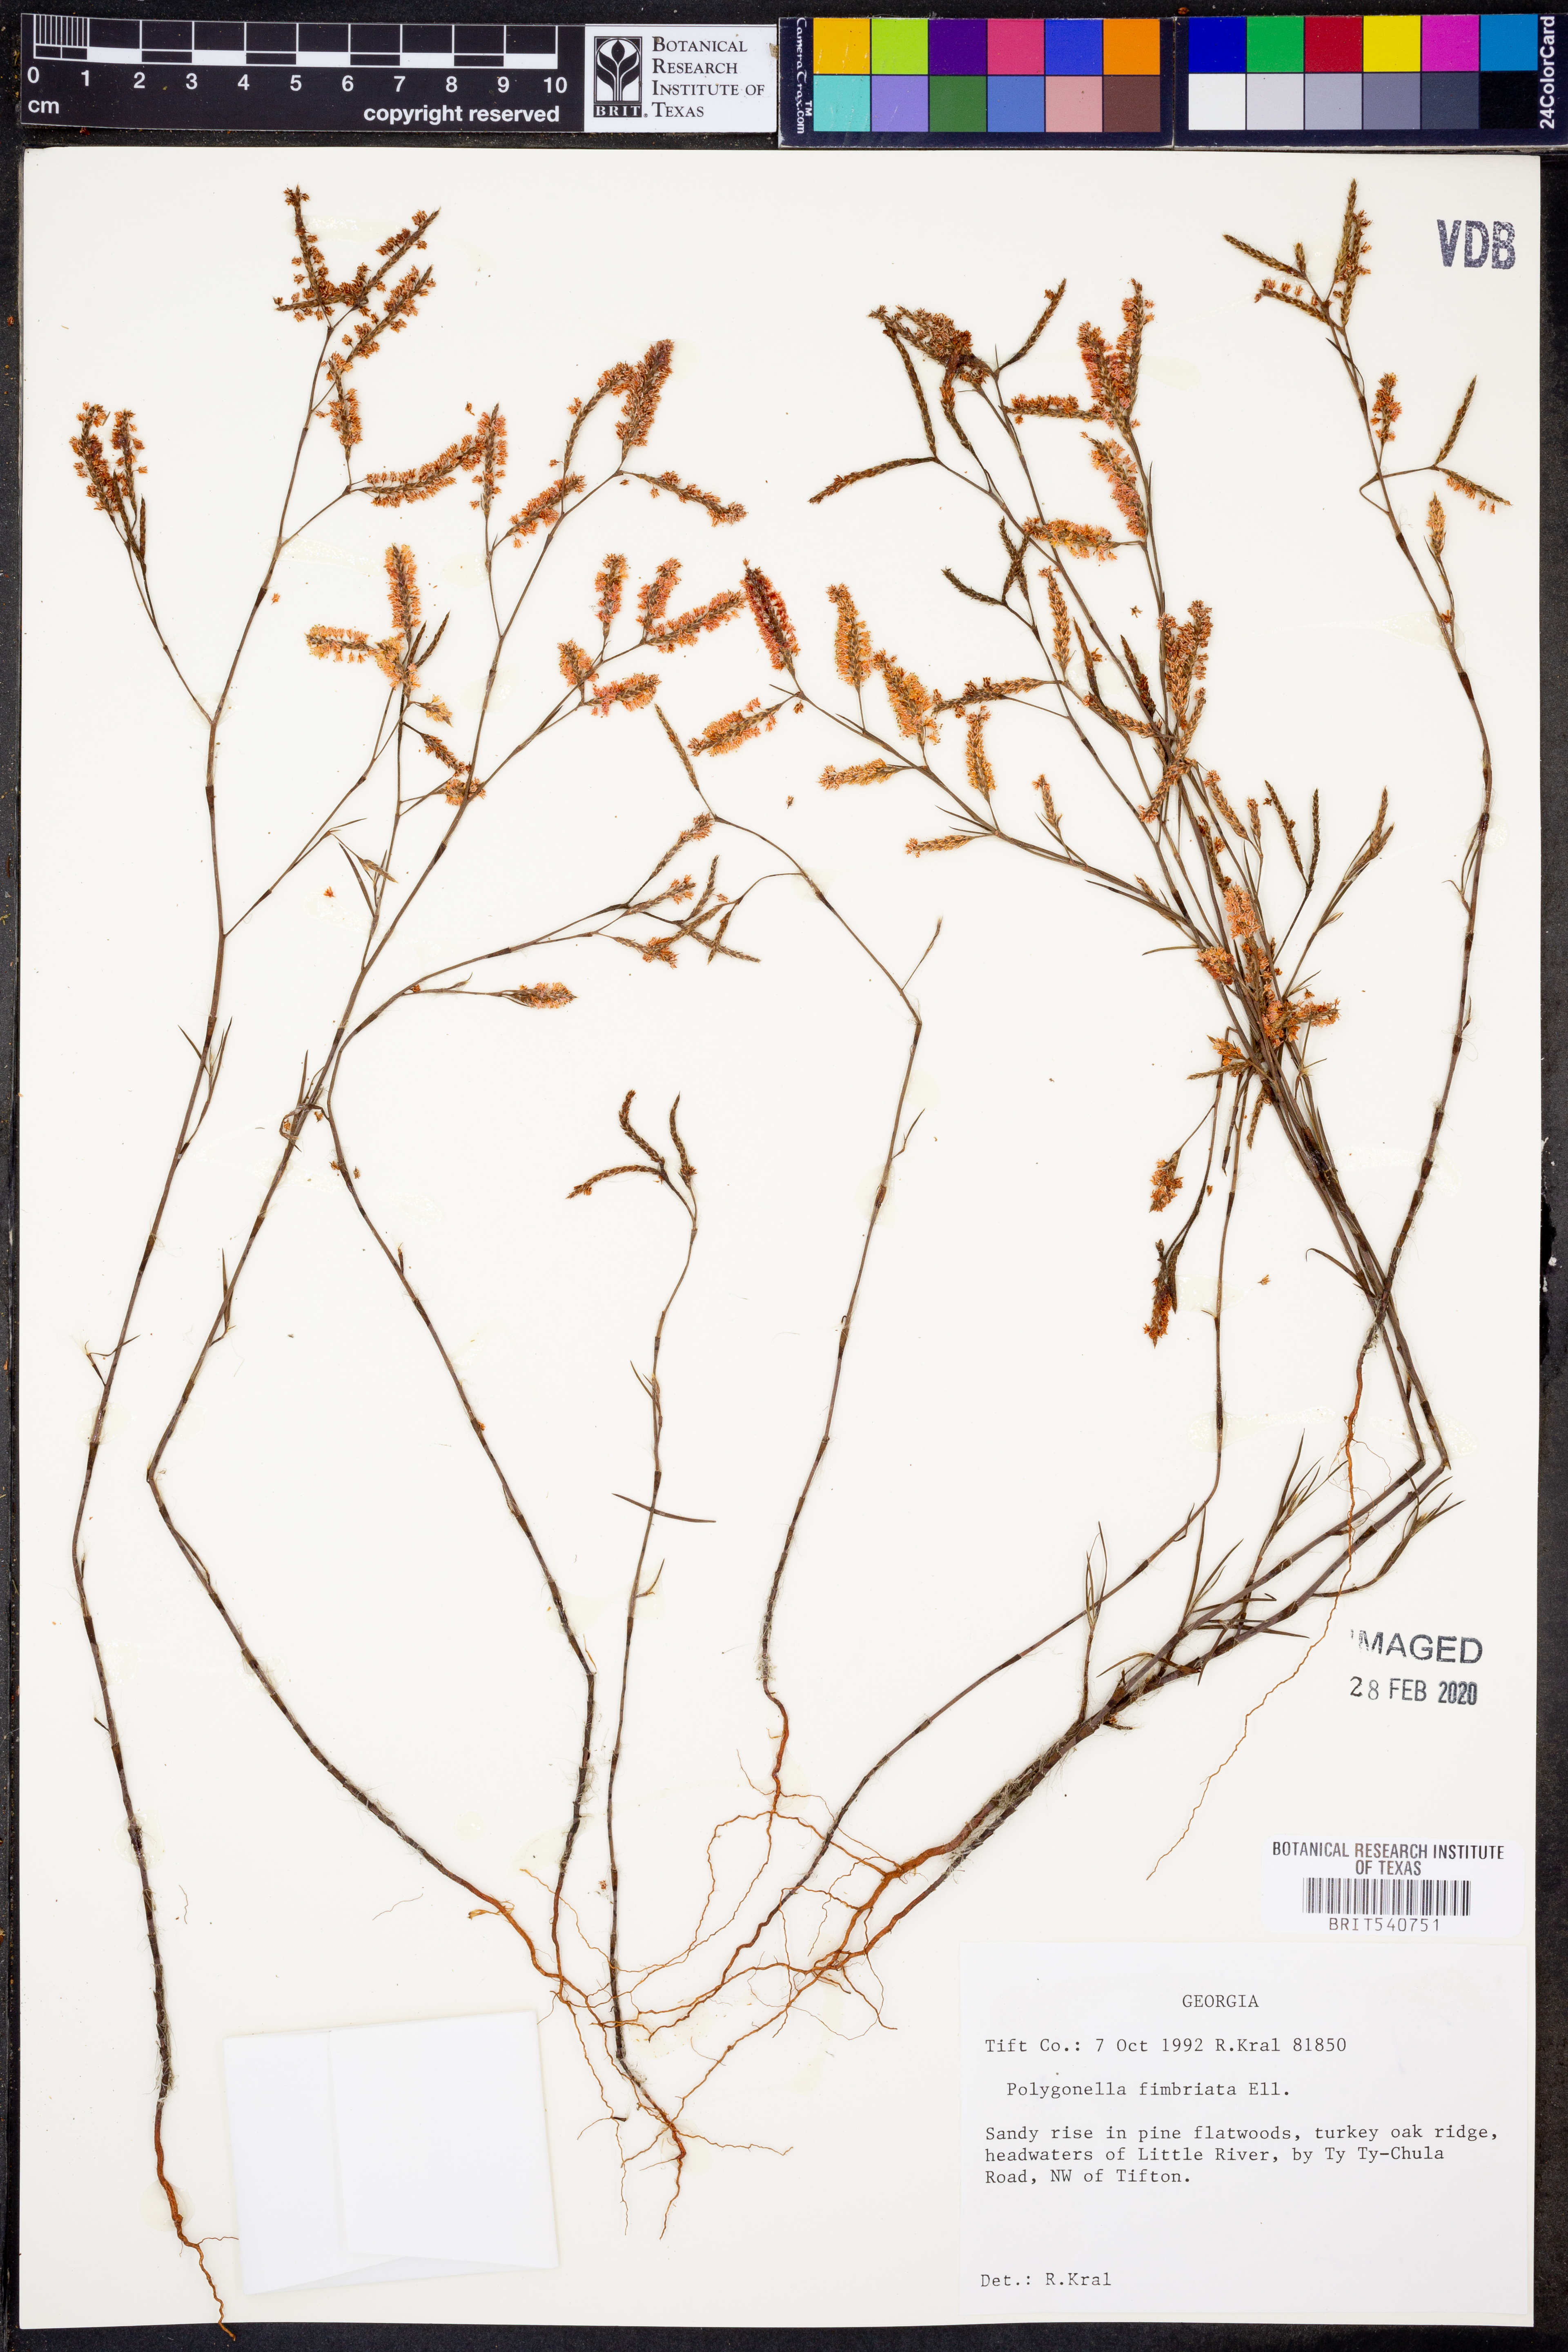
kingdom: Plantae
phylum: Tracheophyta
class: Magnoliopsida
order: Caryophyllales
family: Polygonaceae
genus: Polygonella
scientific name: Polygonella fimbriata
